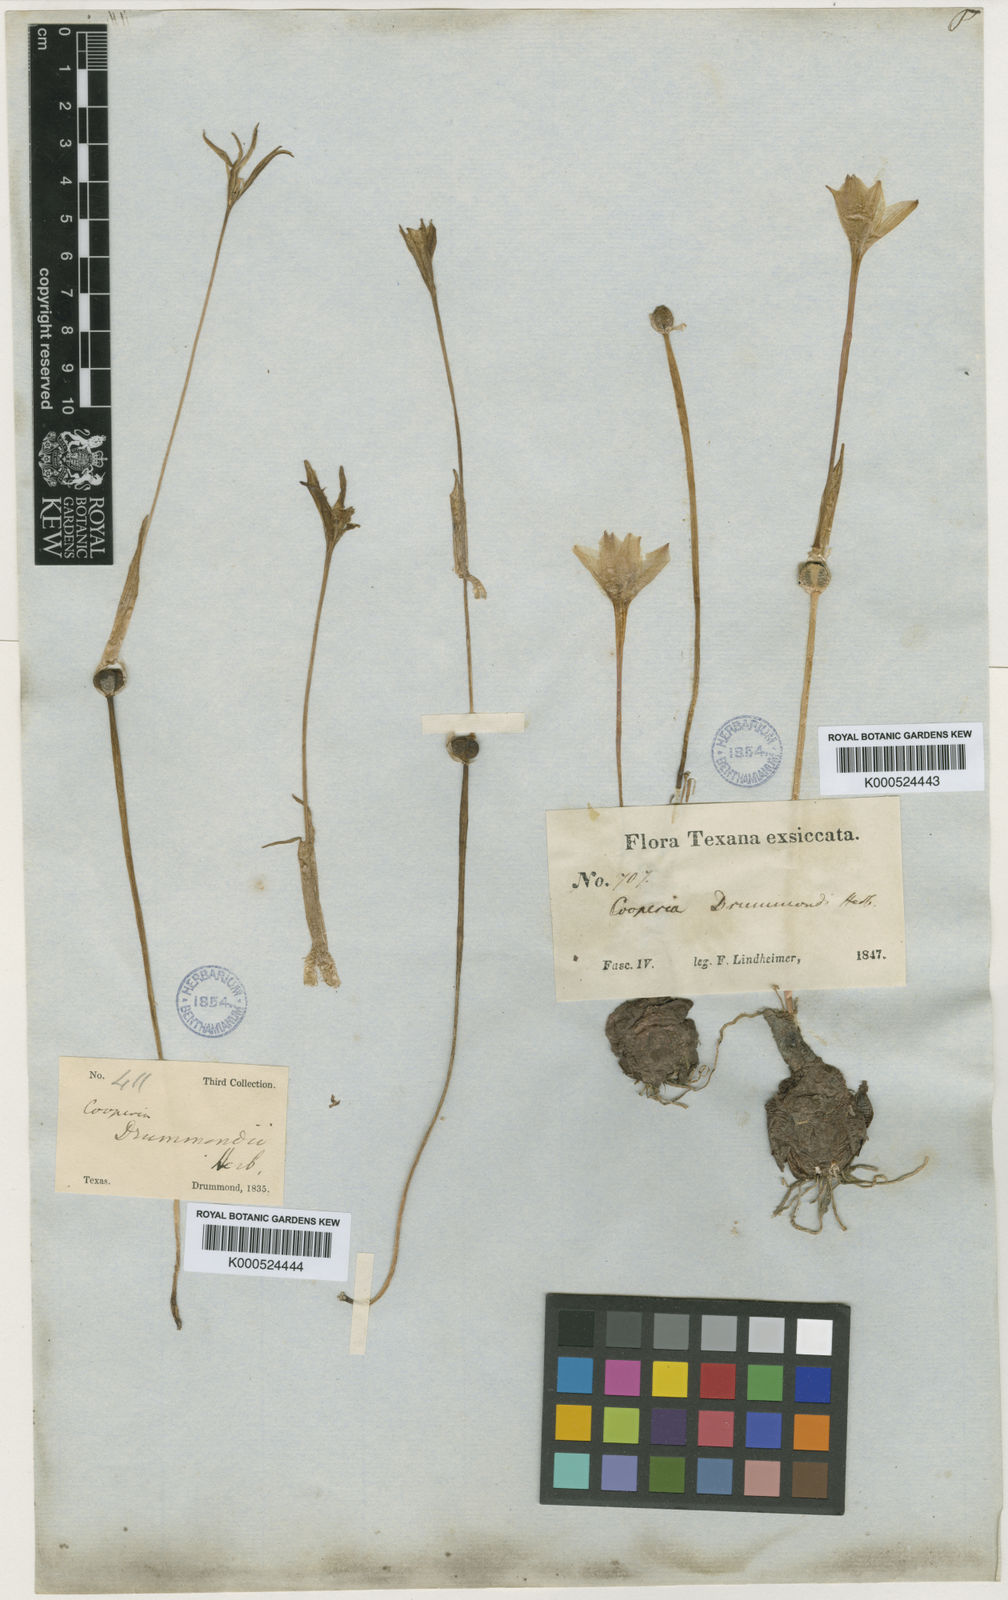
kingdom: Plantae
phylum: Tracheophyta
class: Liliopsida
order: Asparagales
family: Amaryllidaceae
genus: Zephyranthes
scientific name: Zephyranthes chlorosolen
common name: Evening rain-lily
